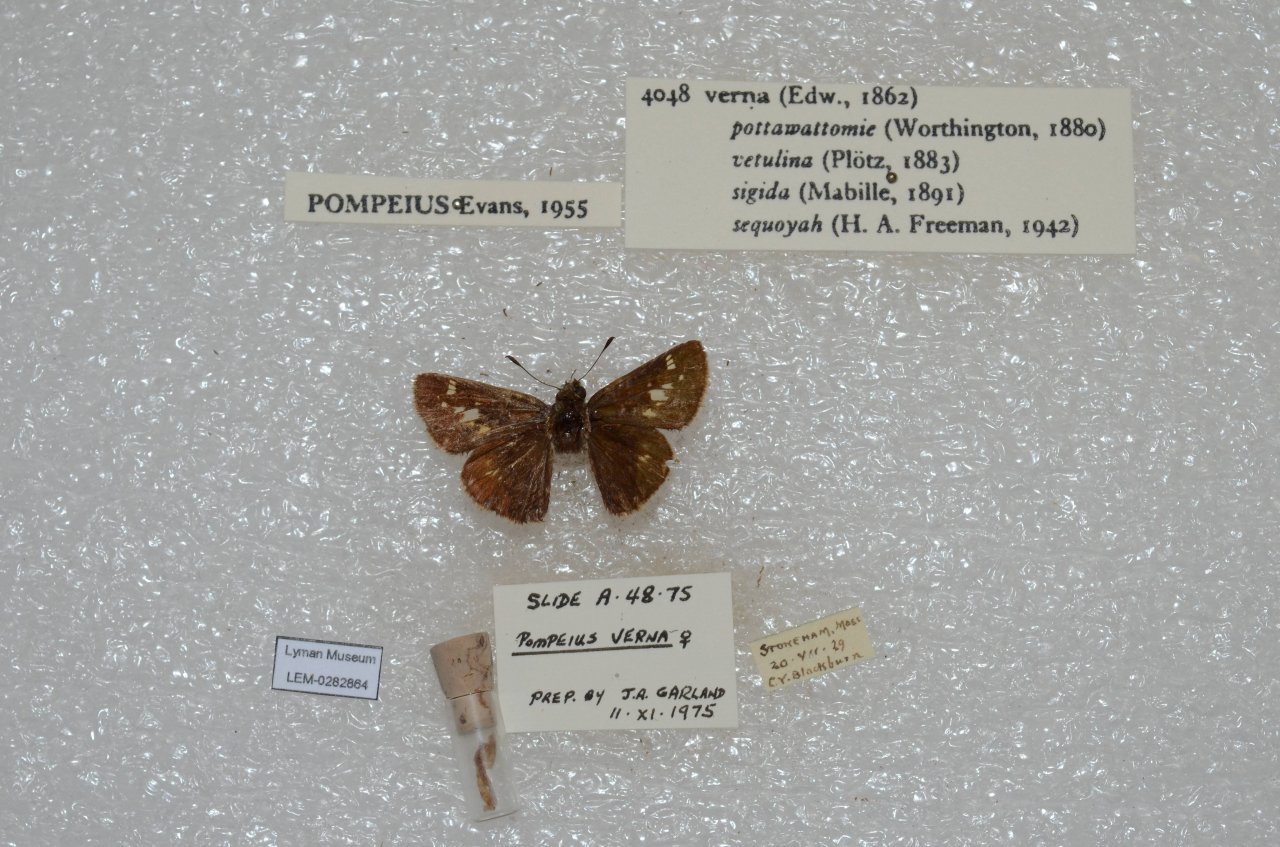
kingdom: Animalia
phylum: Arthropoda
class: Insecta
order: Lepidoptera
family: Hesperiidae
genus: Vernia
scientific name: Vernia verna
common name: Little Glassywing
